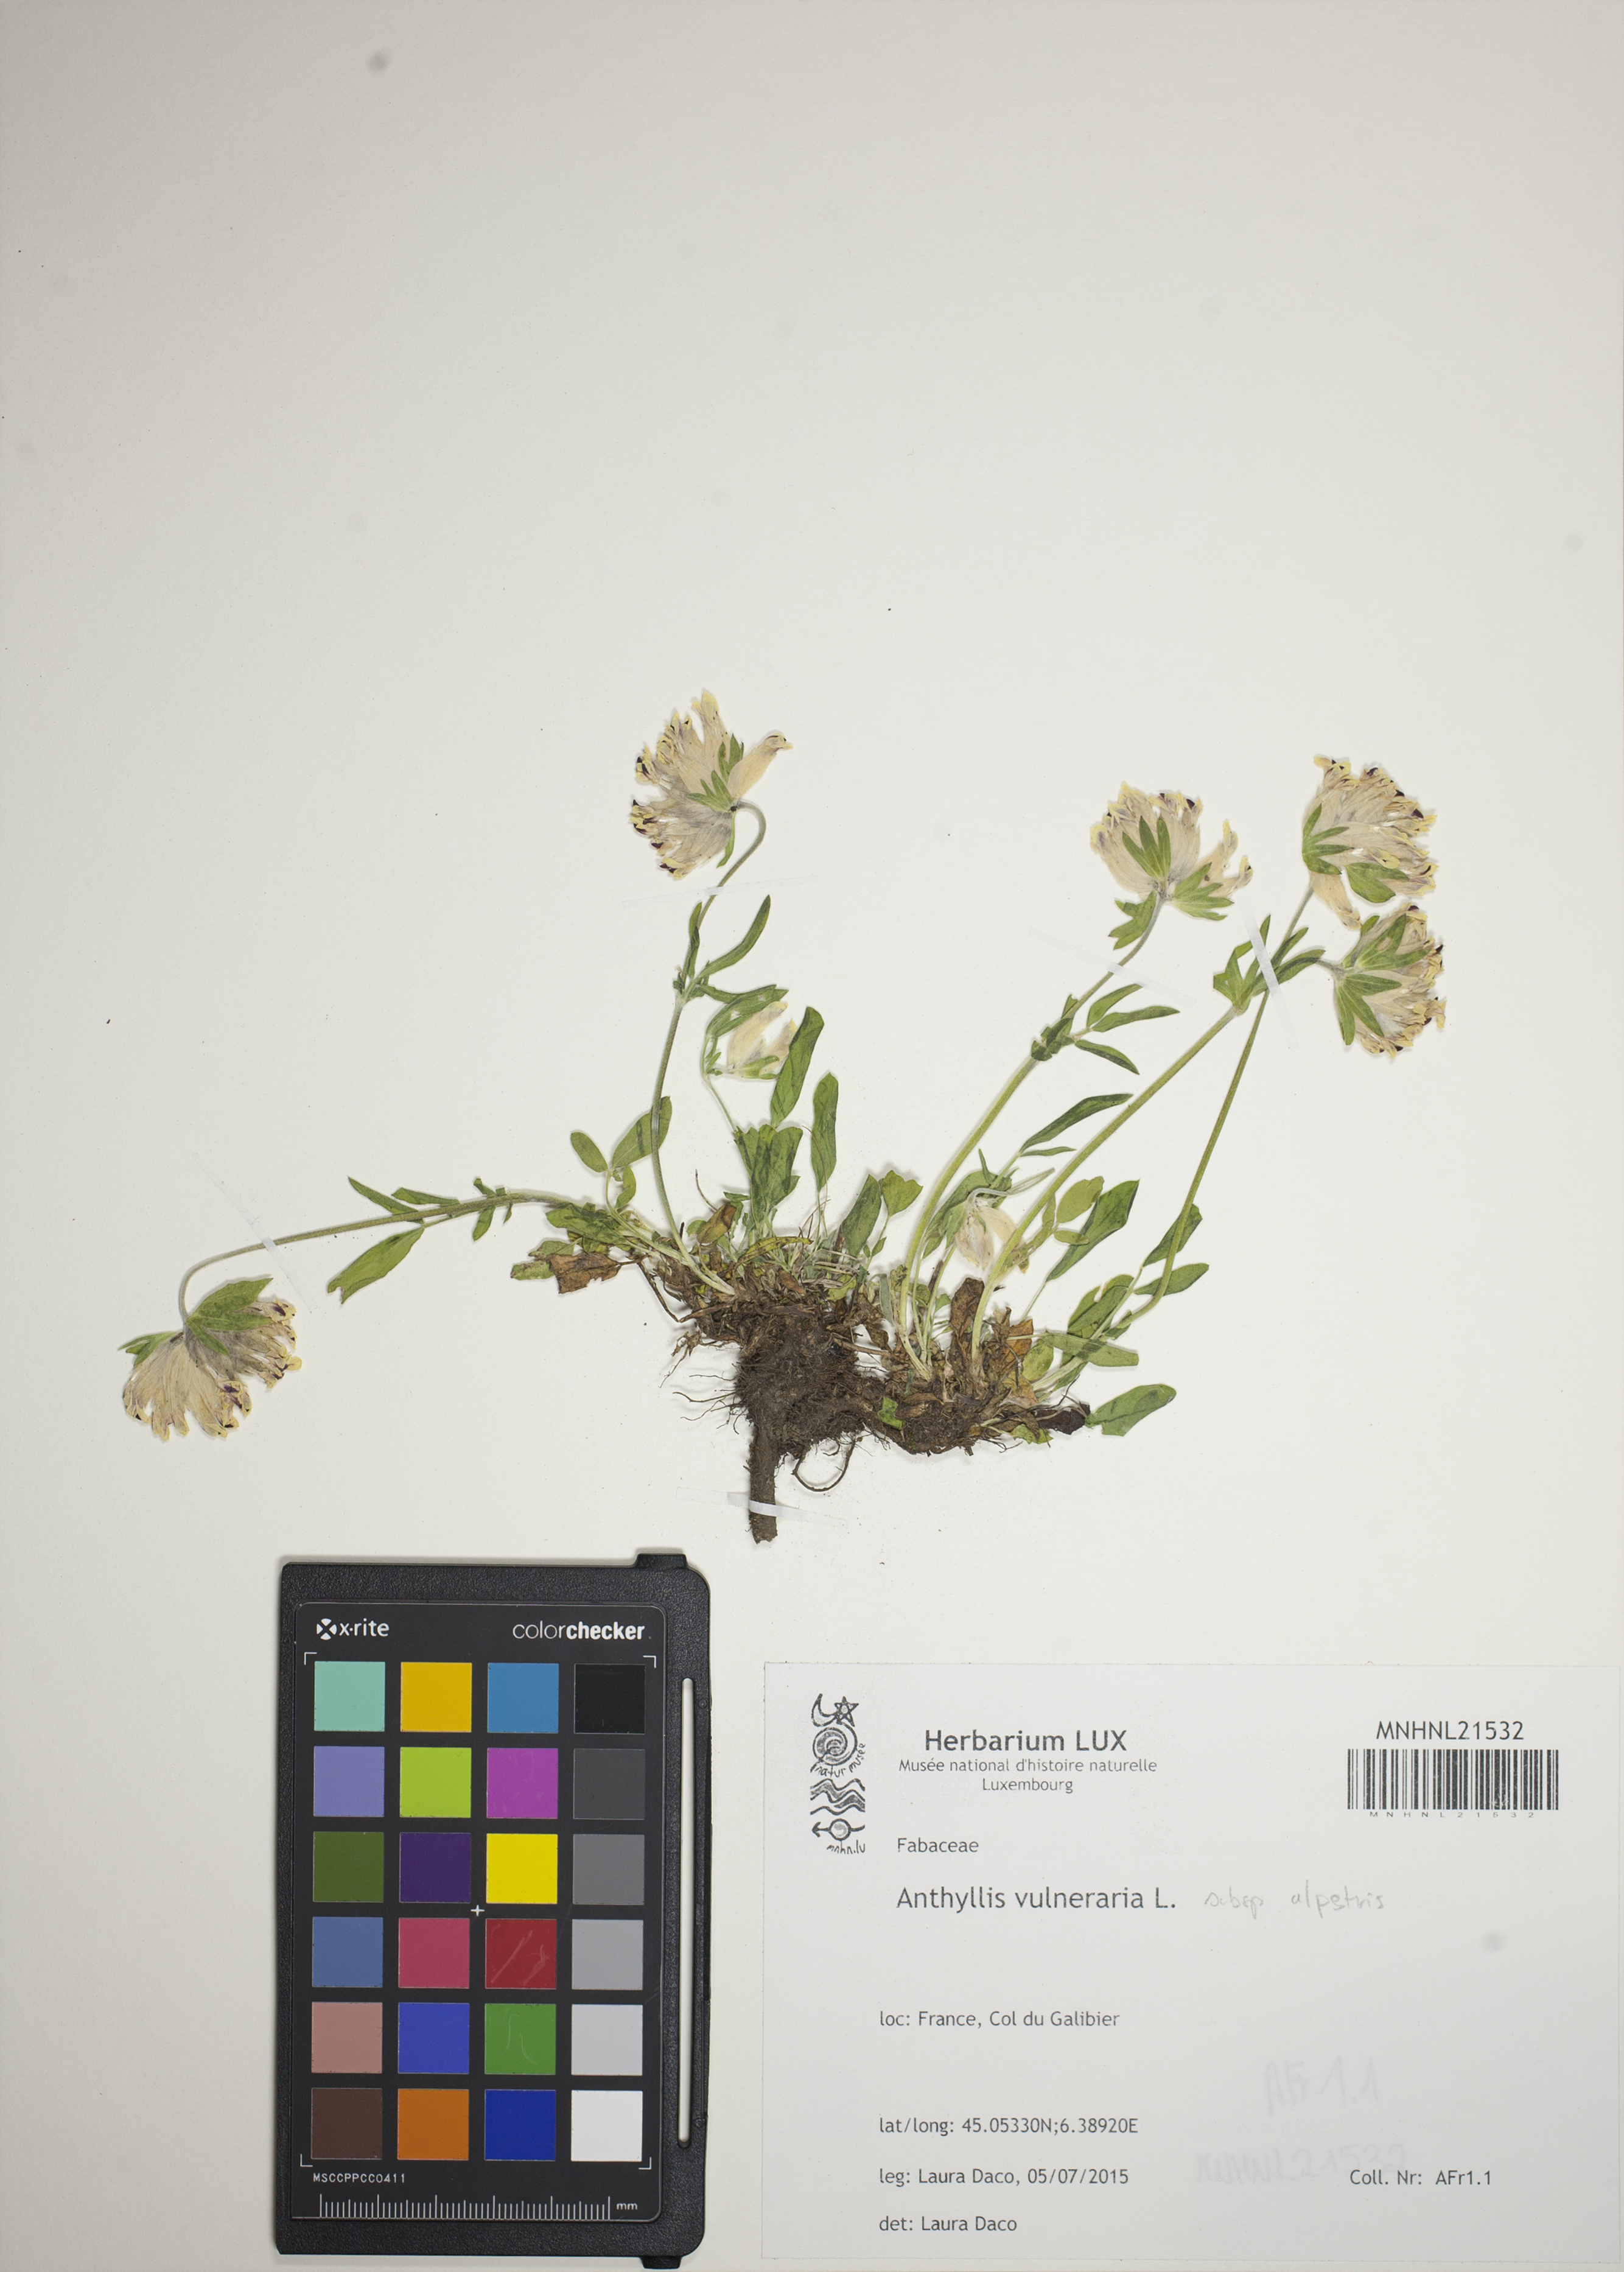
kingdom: Plantae
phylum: Tracheophyta
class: Magnoliopsida
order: Fabales
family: Fabaceae
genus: Anthyllis
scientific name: Anthyllis vulneraria
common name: Kidney vetch
